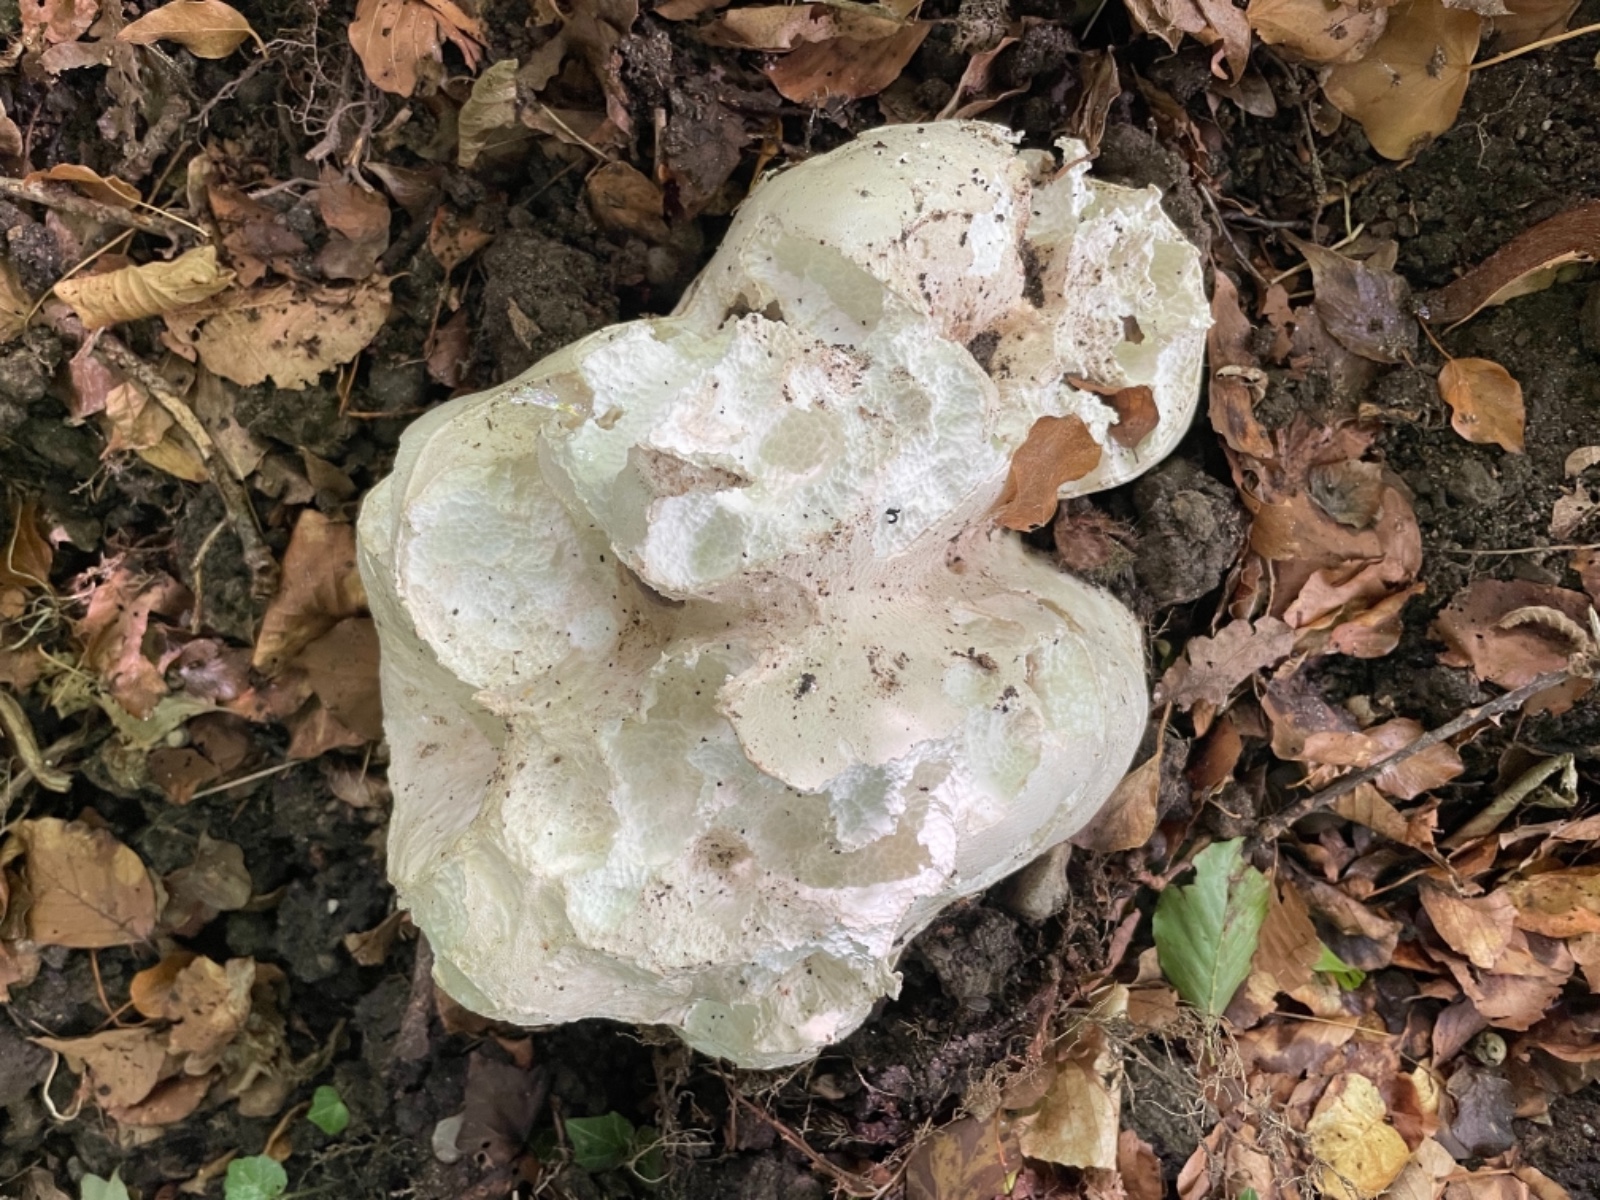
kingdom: Fungi
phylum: Basidiomycota
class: Agaricomycetes
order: Agaricales
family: Lycoperdaceae
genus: Calvatia
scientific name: Calvatia gigantea
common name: kæmpestøvbold
